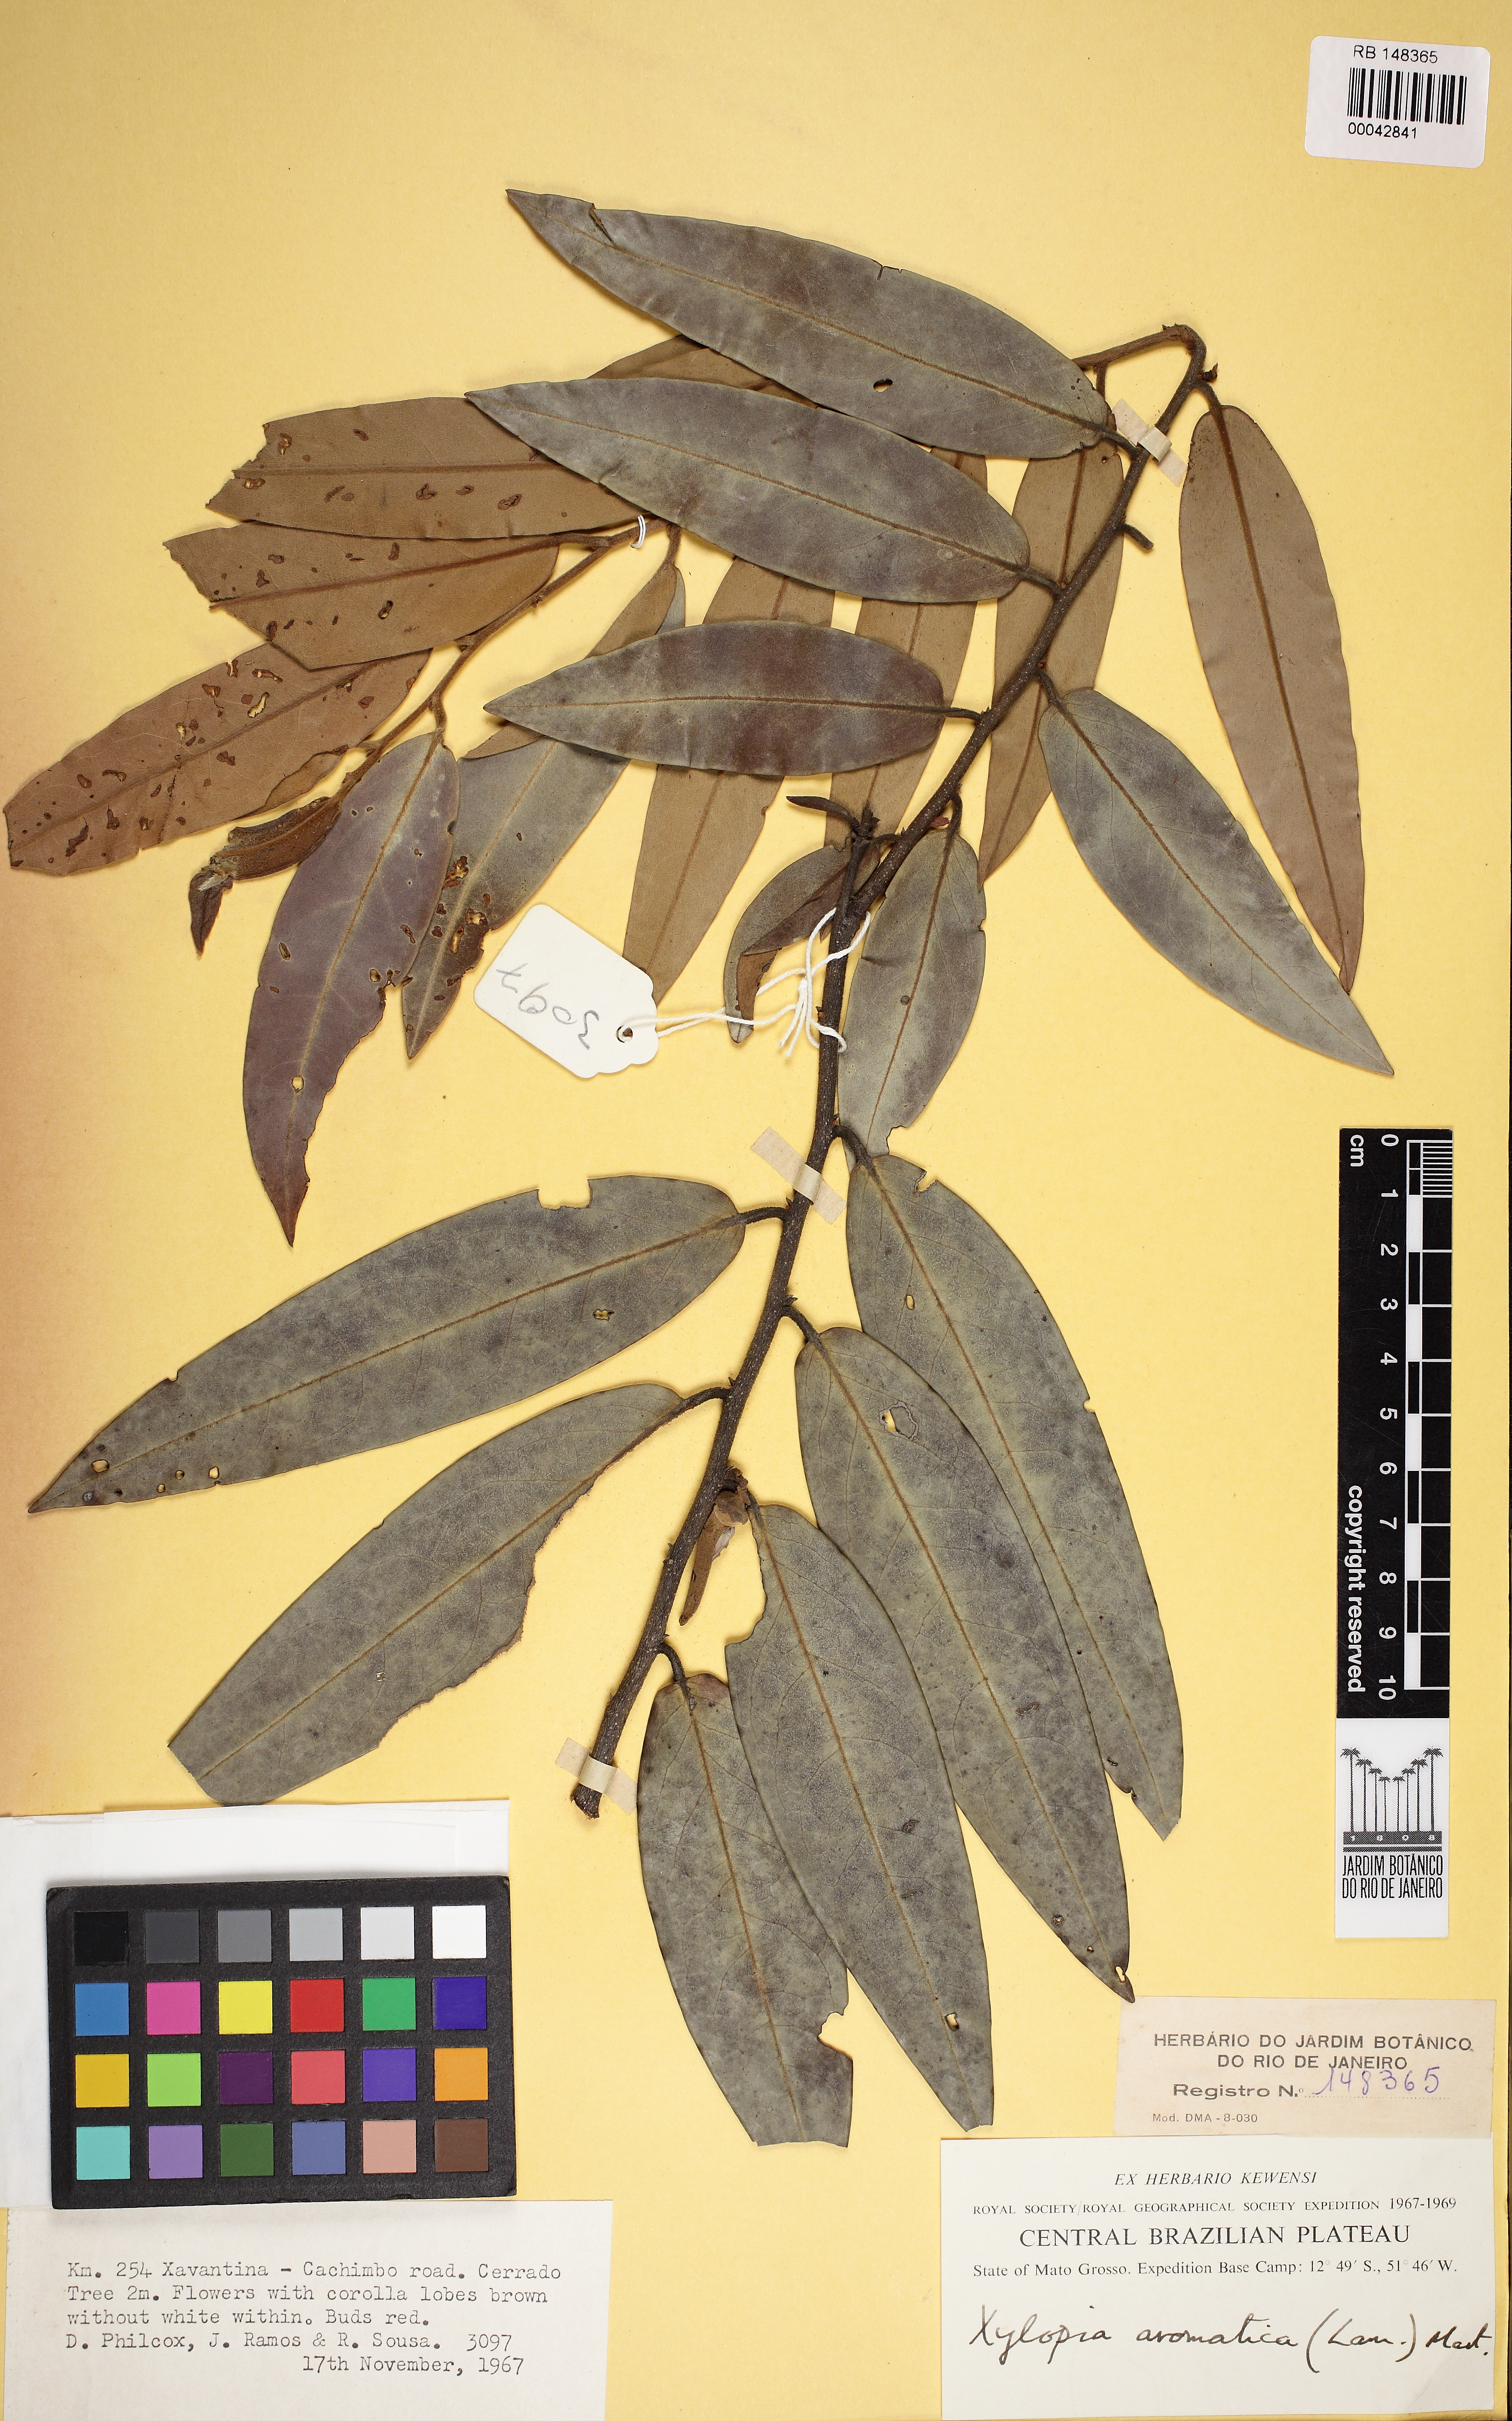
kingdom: Plantae
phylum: Tracheophyta
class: Magnoliopsida
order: Magnoliales
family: Annonaceae
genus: Xylopia
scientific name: Xylopia aromatica
